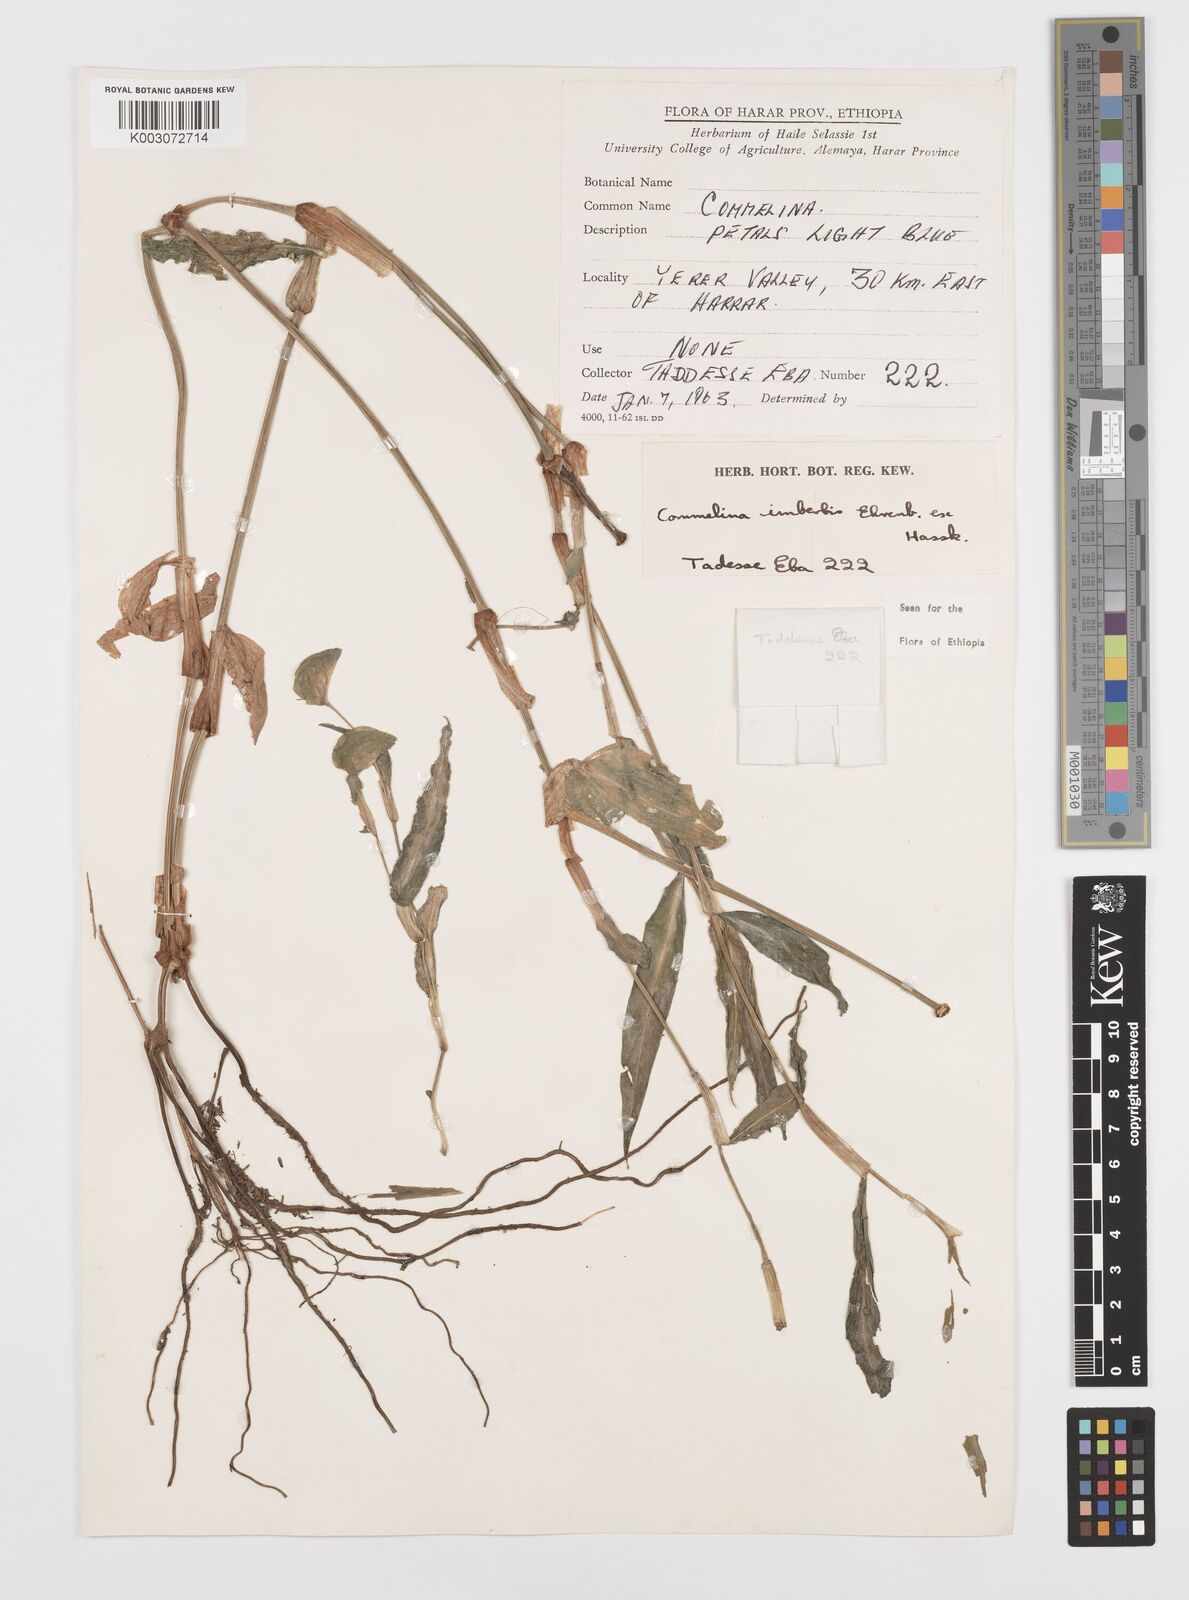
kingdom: Plantae
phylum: Tracheophyta
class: Liliopsida
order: Commelinales
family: Commelinaceae
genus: Commelina
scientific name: Commelina imberbis
